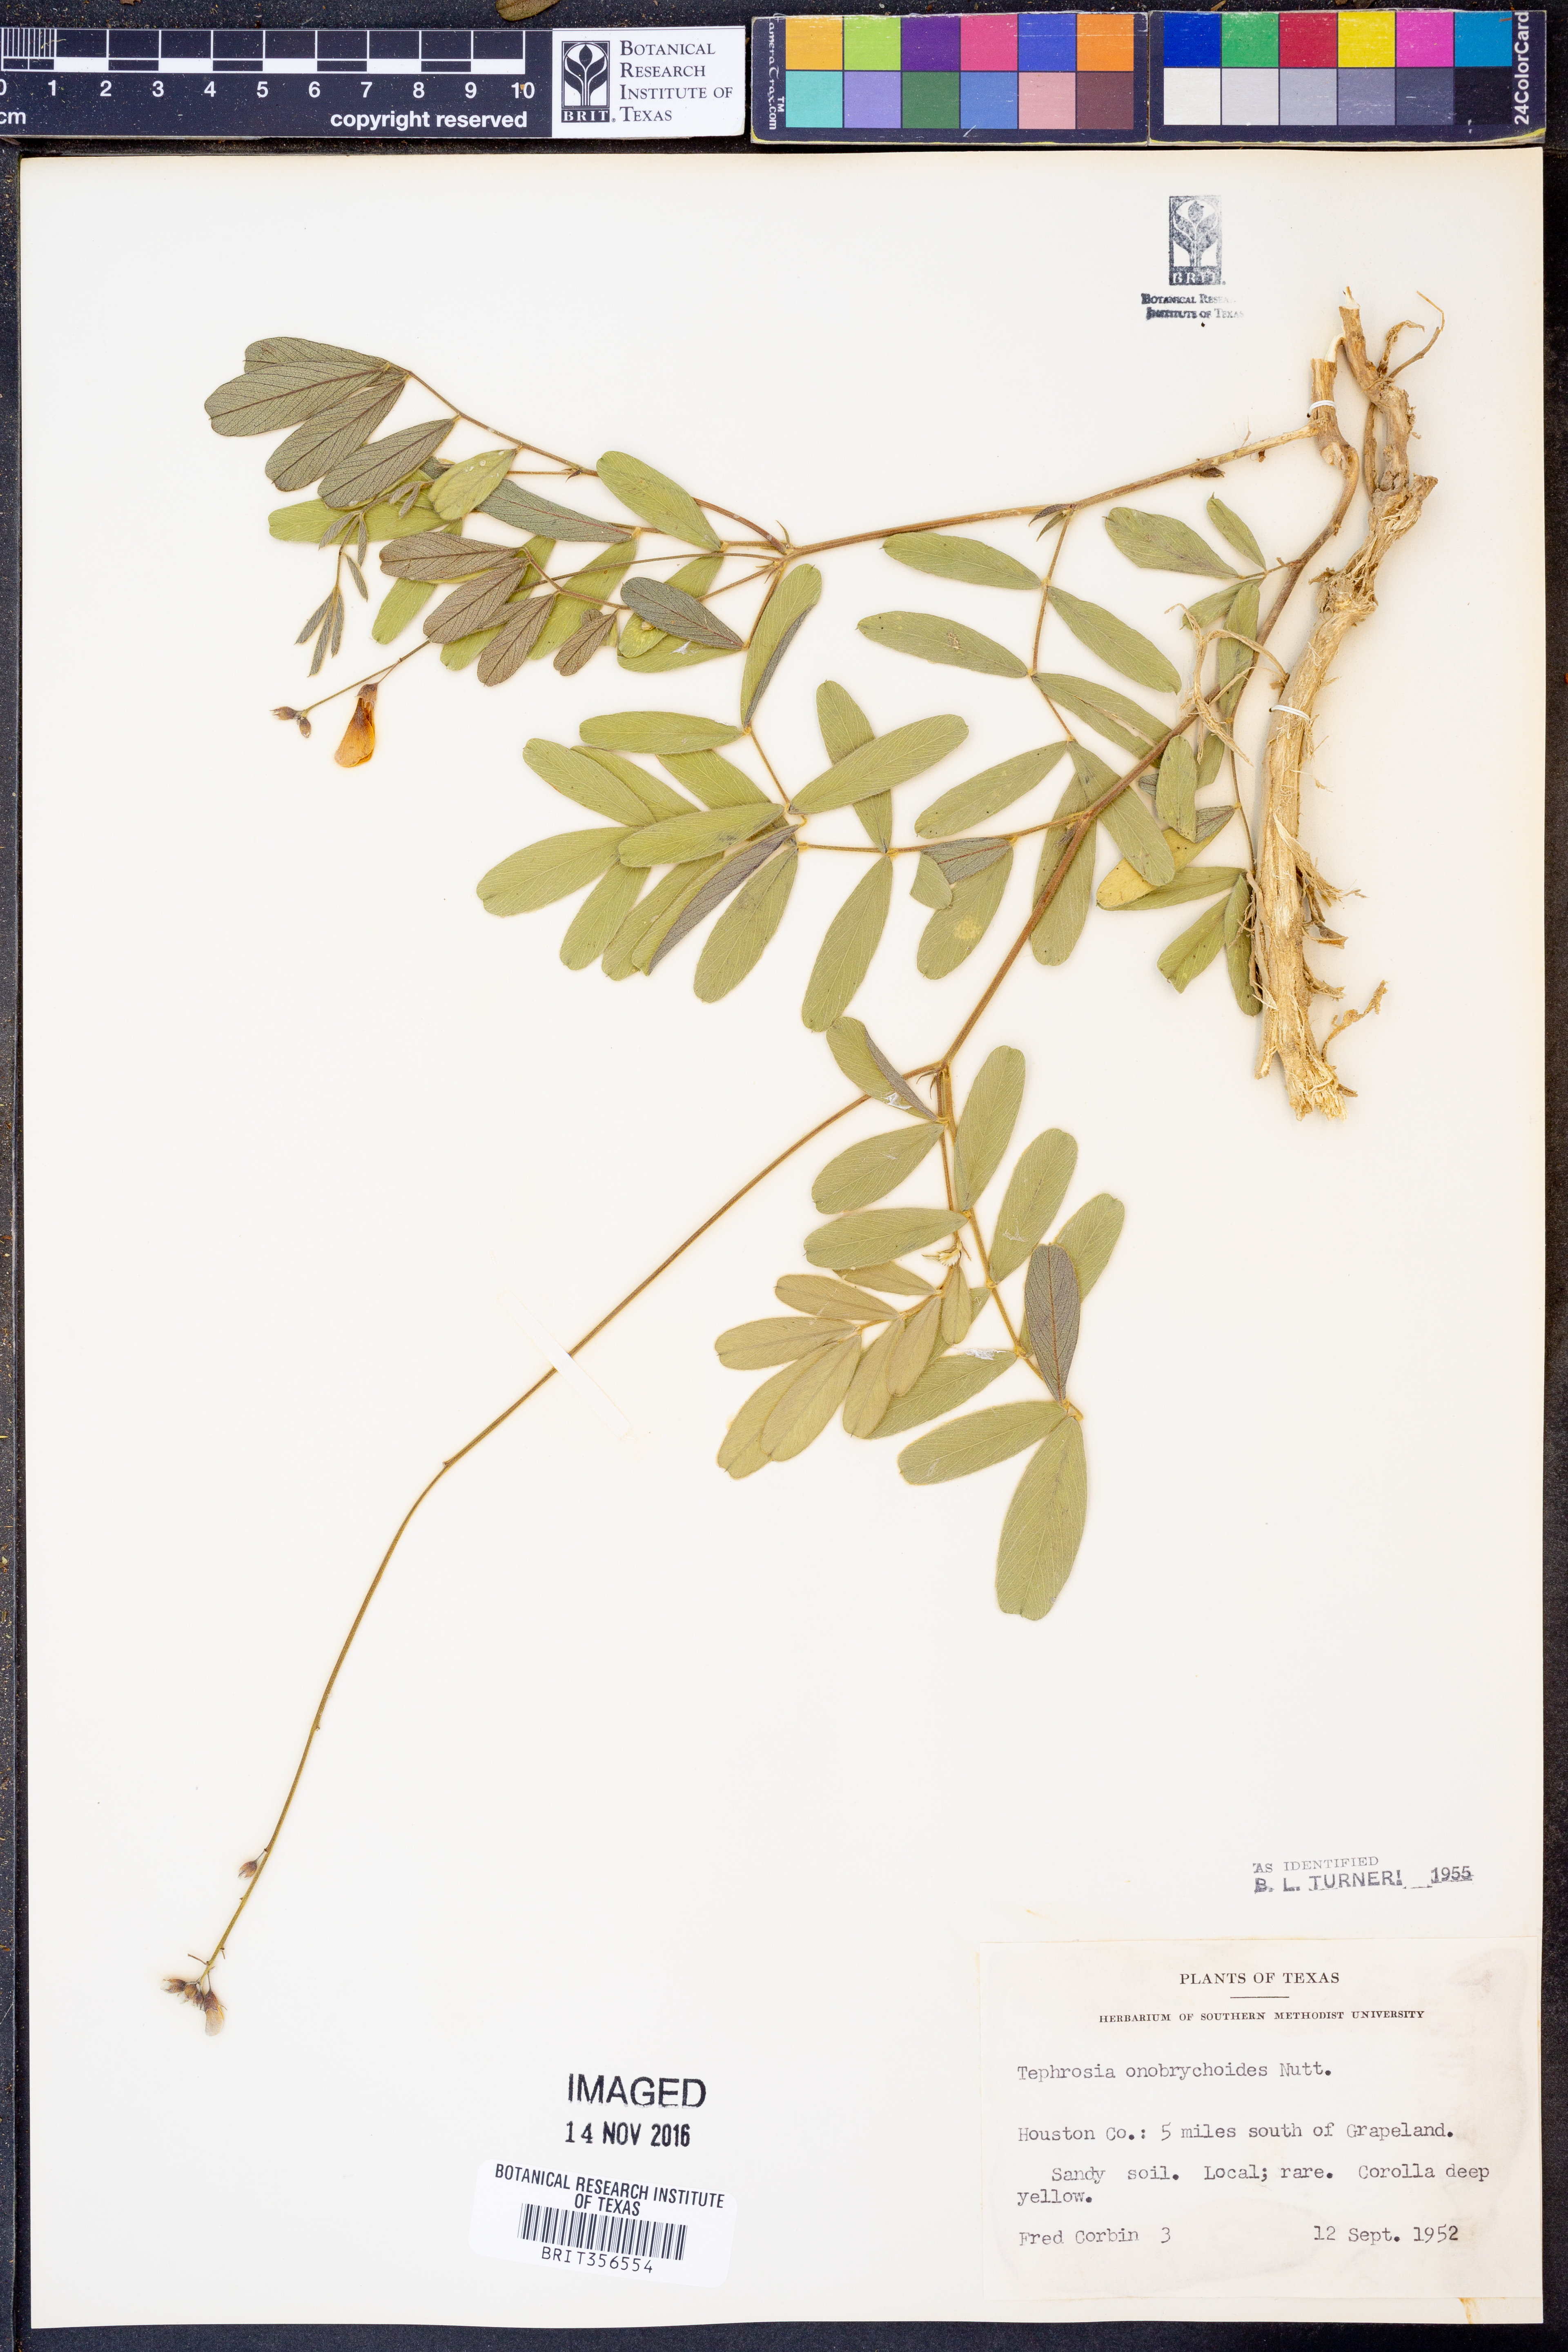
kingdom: Plantae
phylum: Tracheophyta
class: Magnoliopsida
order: Fabales
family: Fabaceae
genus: Tephrosia
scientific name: Tephrosia onobrychoides
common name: Multi-bloom hoary-pea
